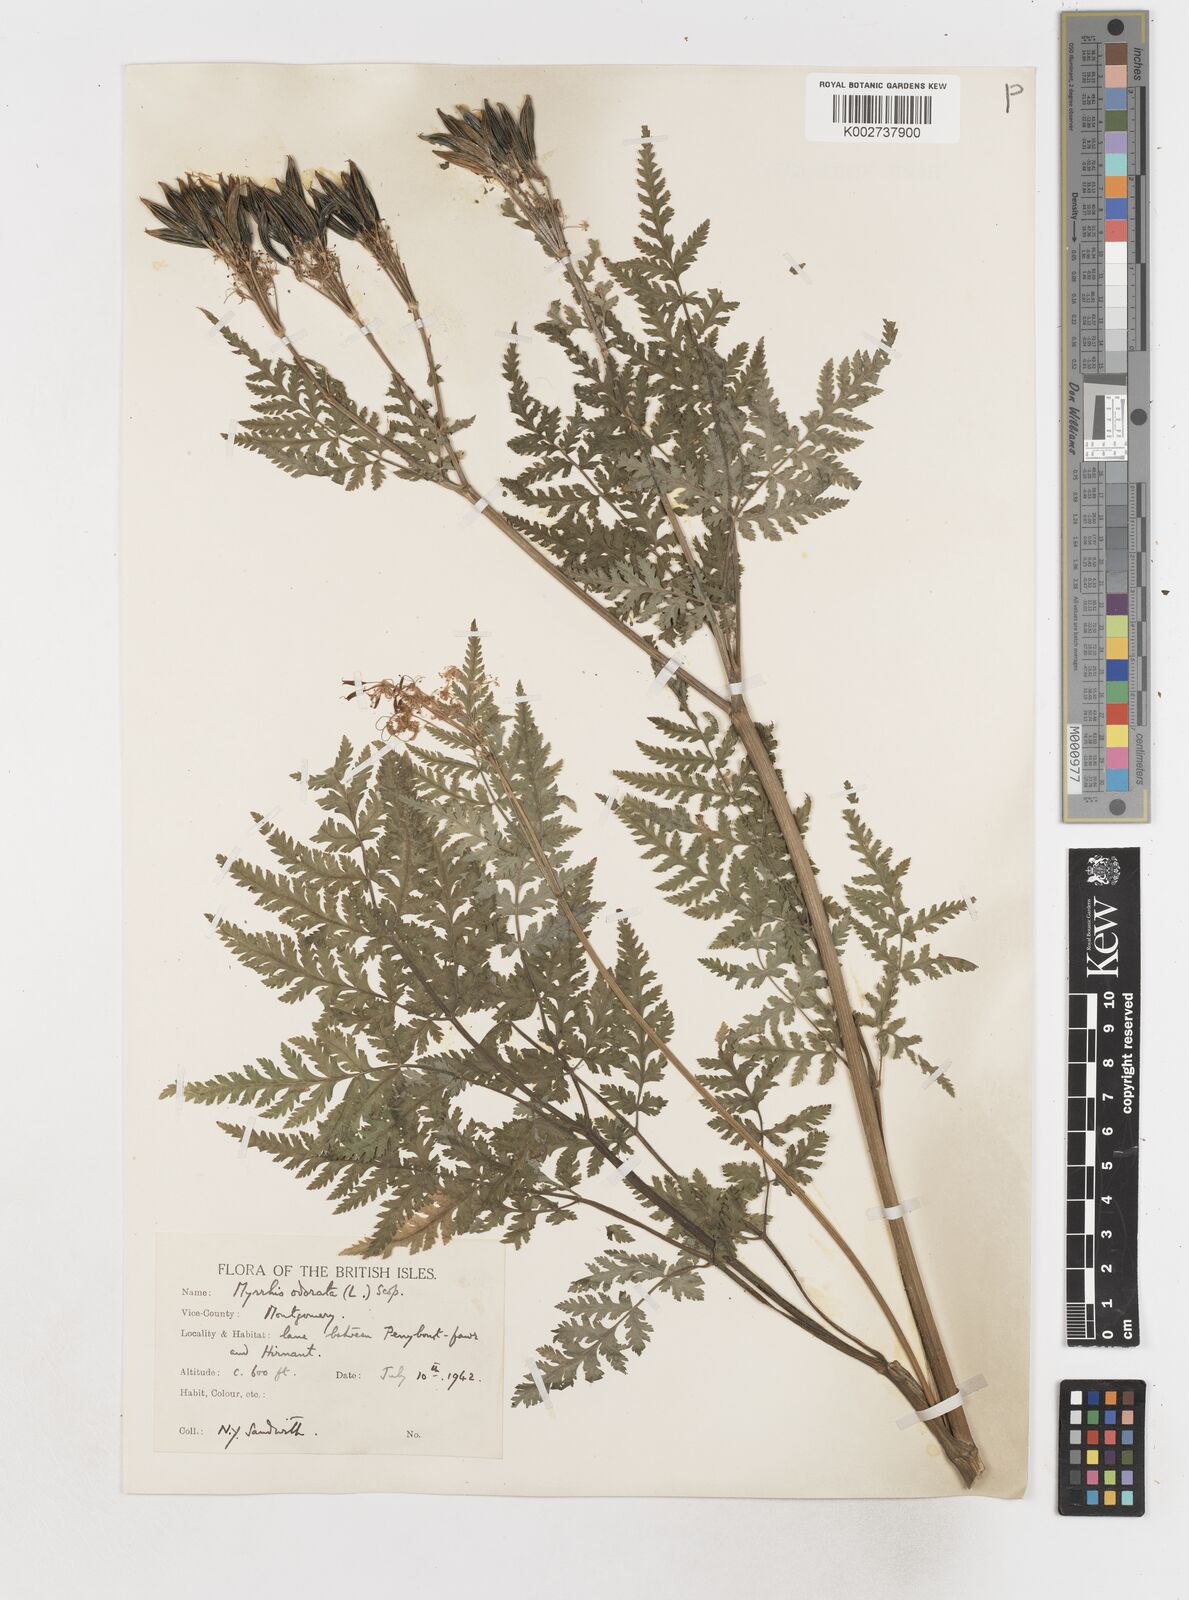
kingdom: Plantae
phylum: Tracheophyta
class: Magnoliopsida
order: Apiales
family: Apiaceae
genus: Myrrhis
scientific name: Myrrhis odorata
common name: Sweet cicely
